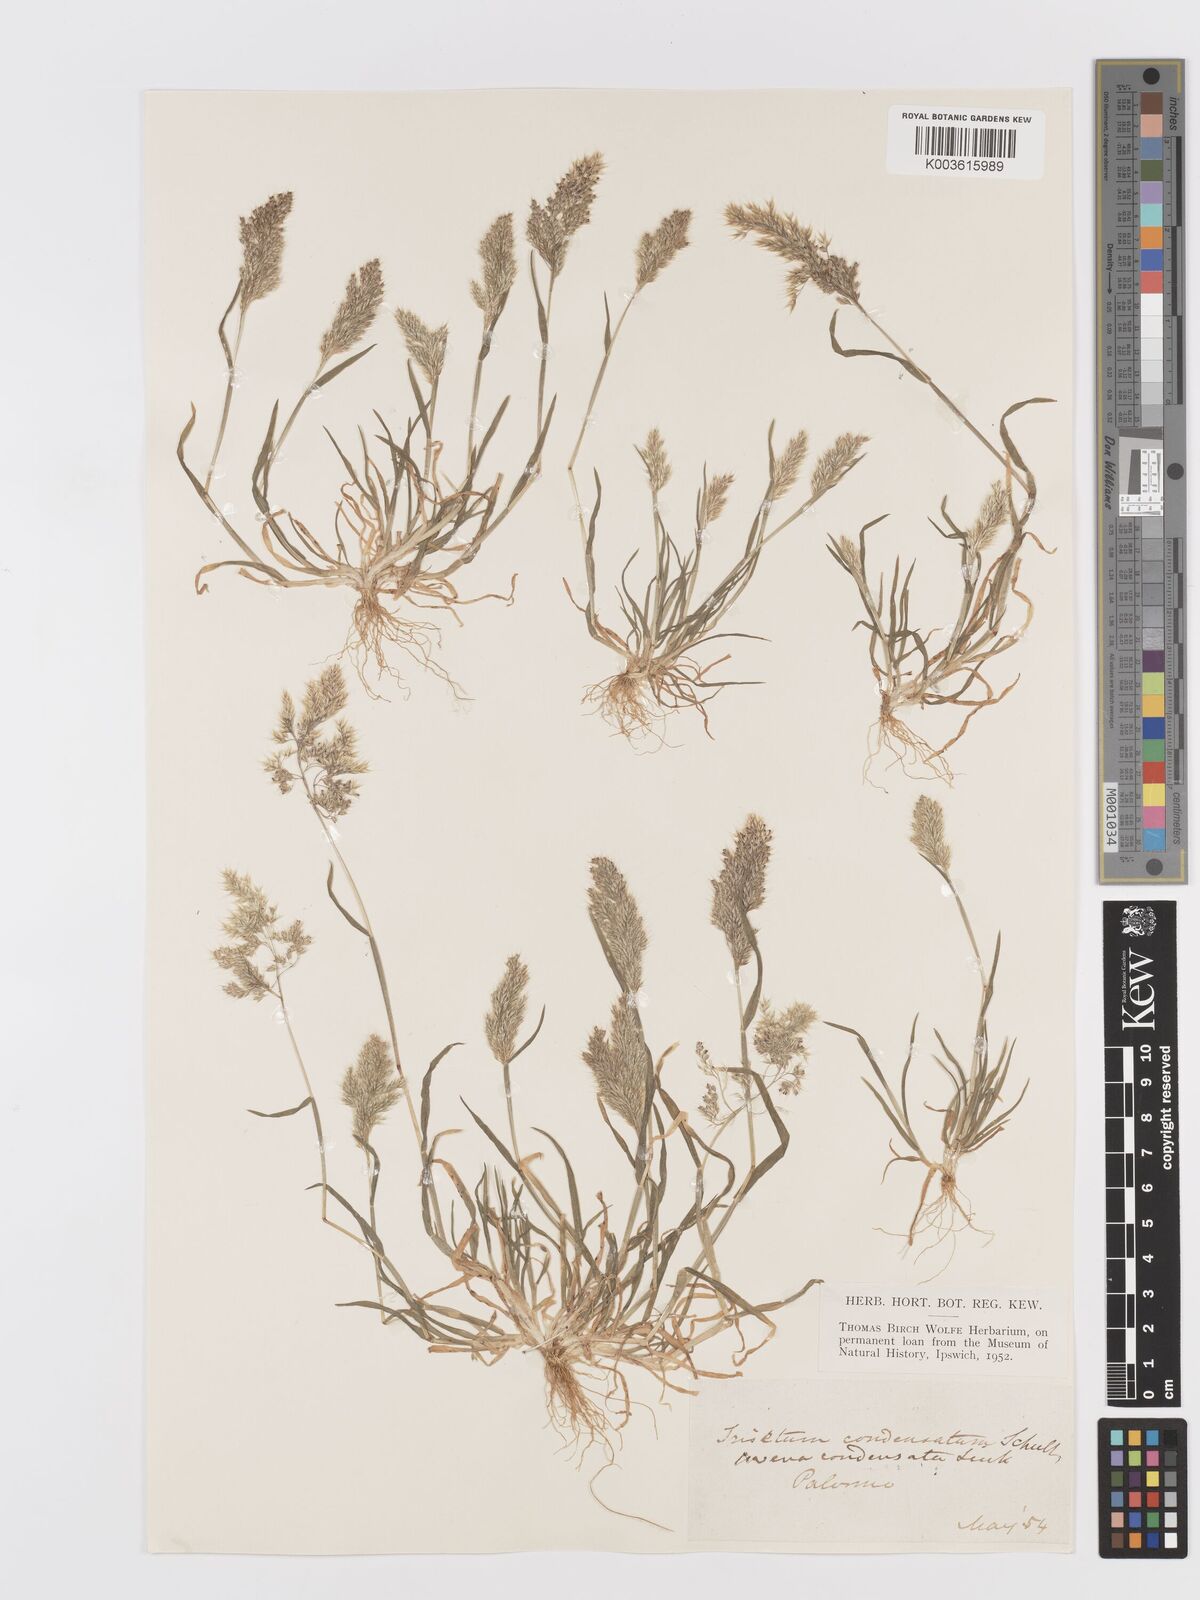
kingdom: Plantae
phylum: Tracheophyta
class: Liliopsida
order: Poales
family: Poaceae
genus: Trisetaria
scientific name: Trisetaria aurea
